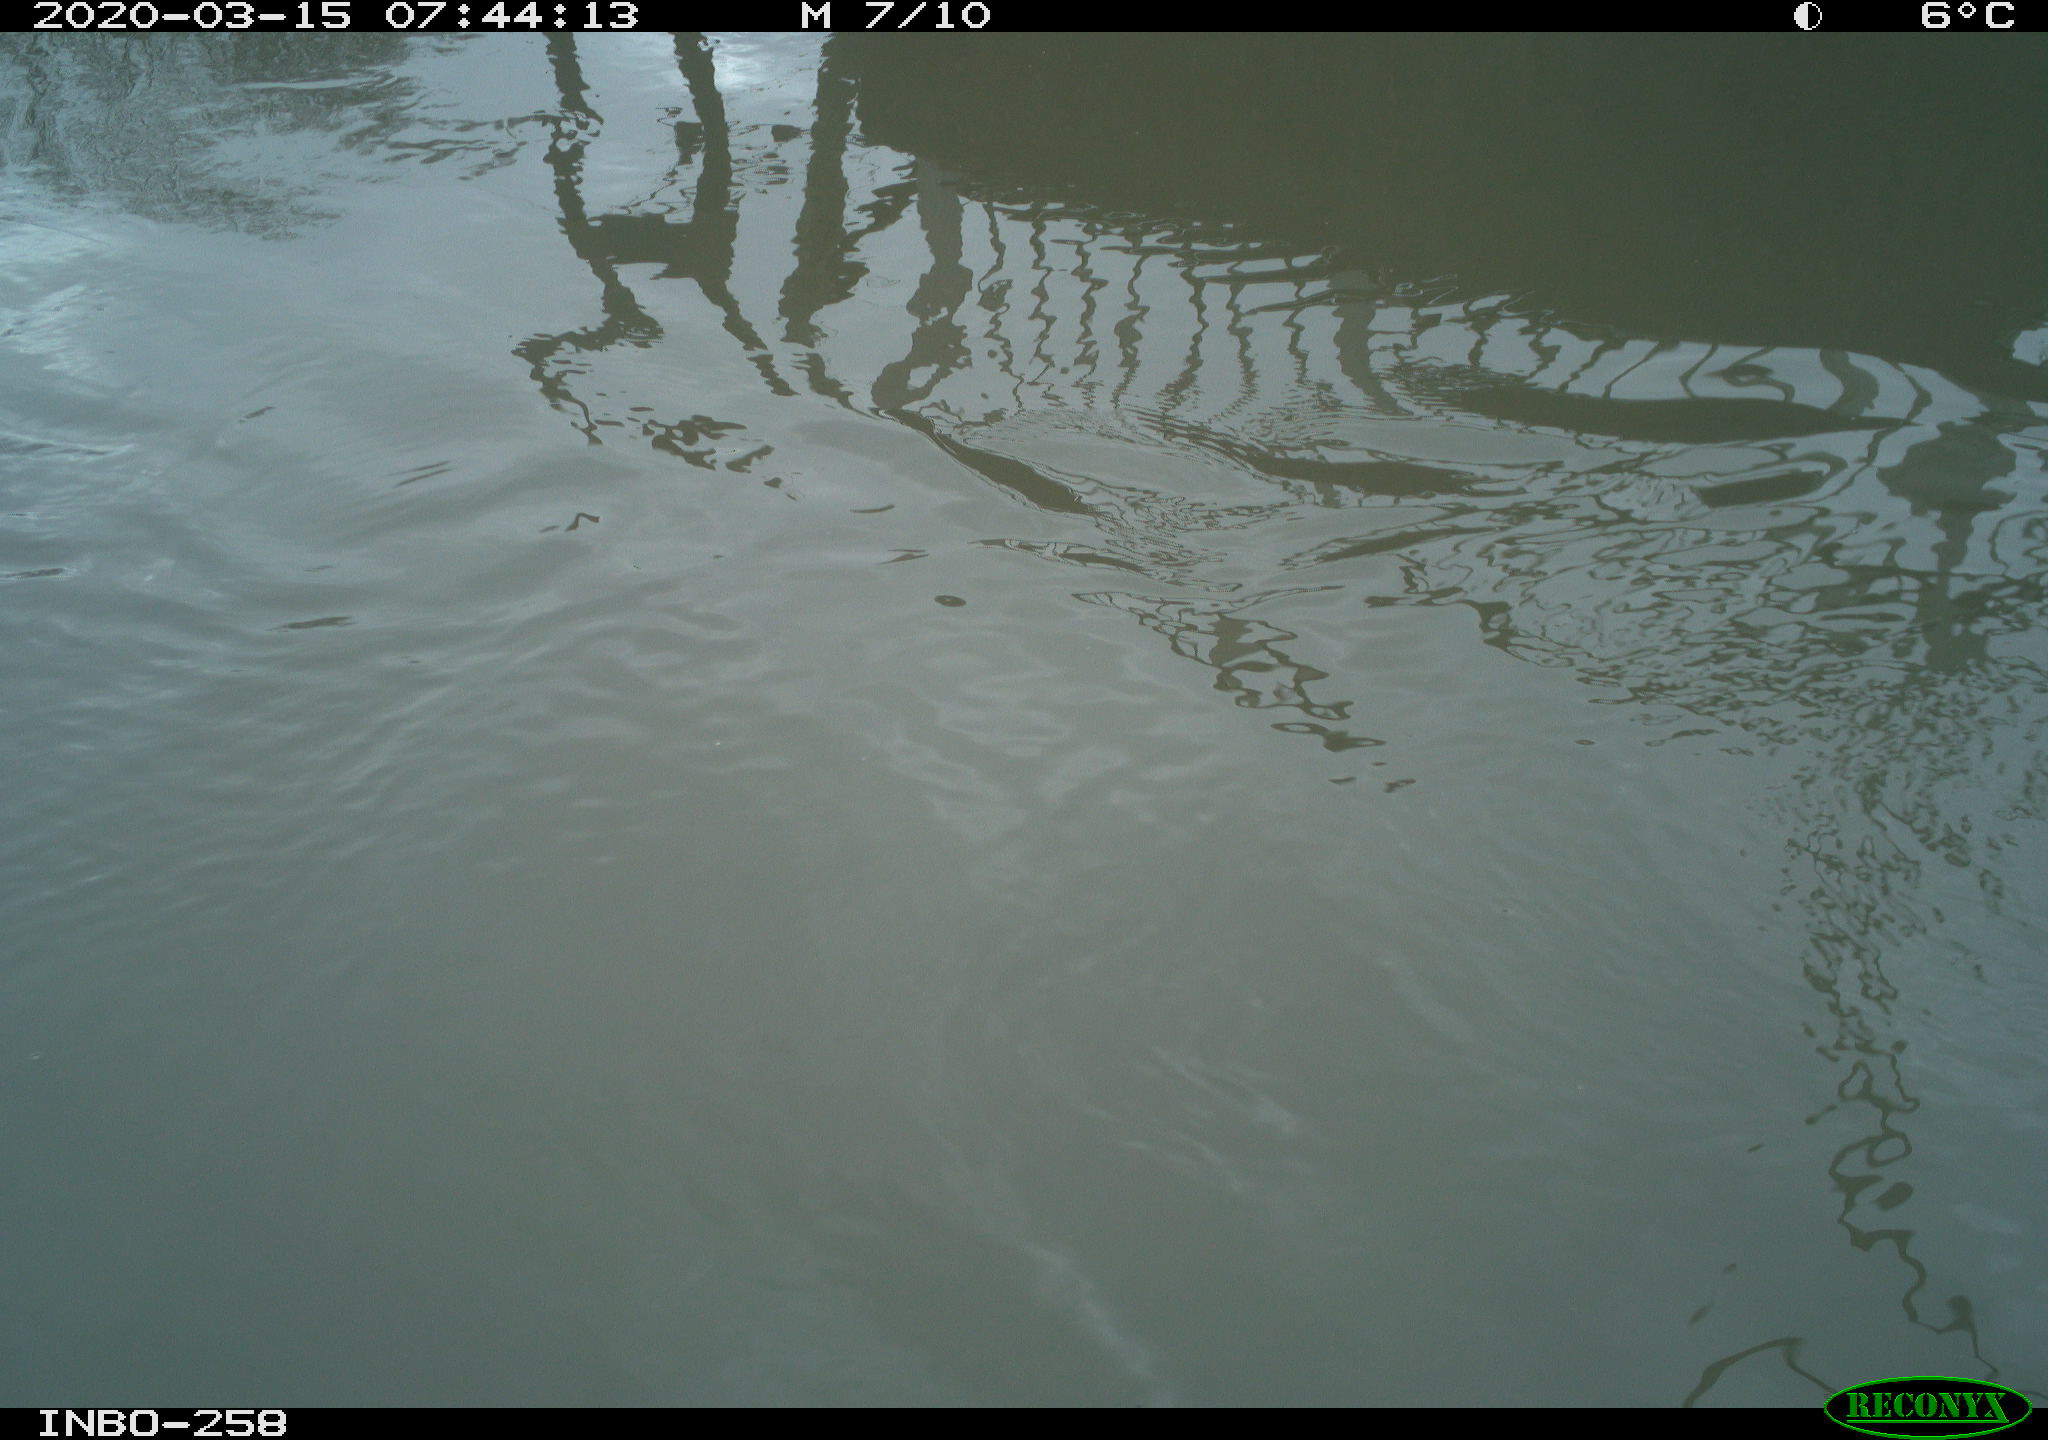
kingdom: Animalia
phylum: Chordata
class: Aves
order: Gruiformes
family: Rallidae
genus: Gallinula
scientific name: Gallinula chloropus
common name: Common moorhen
